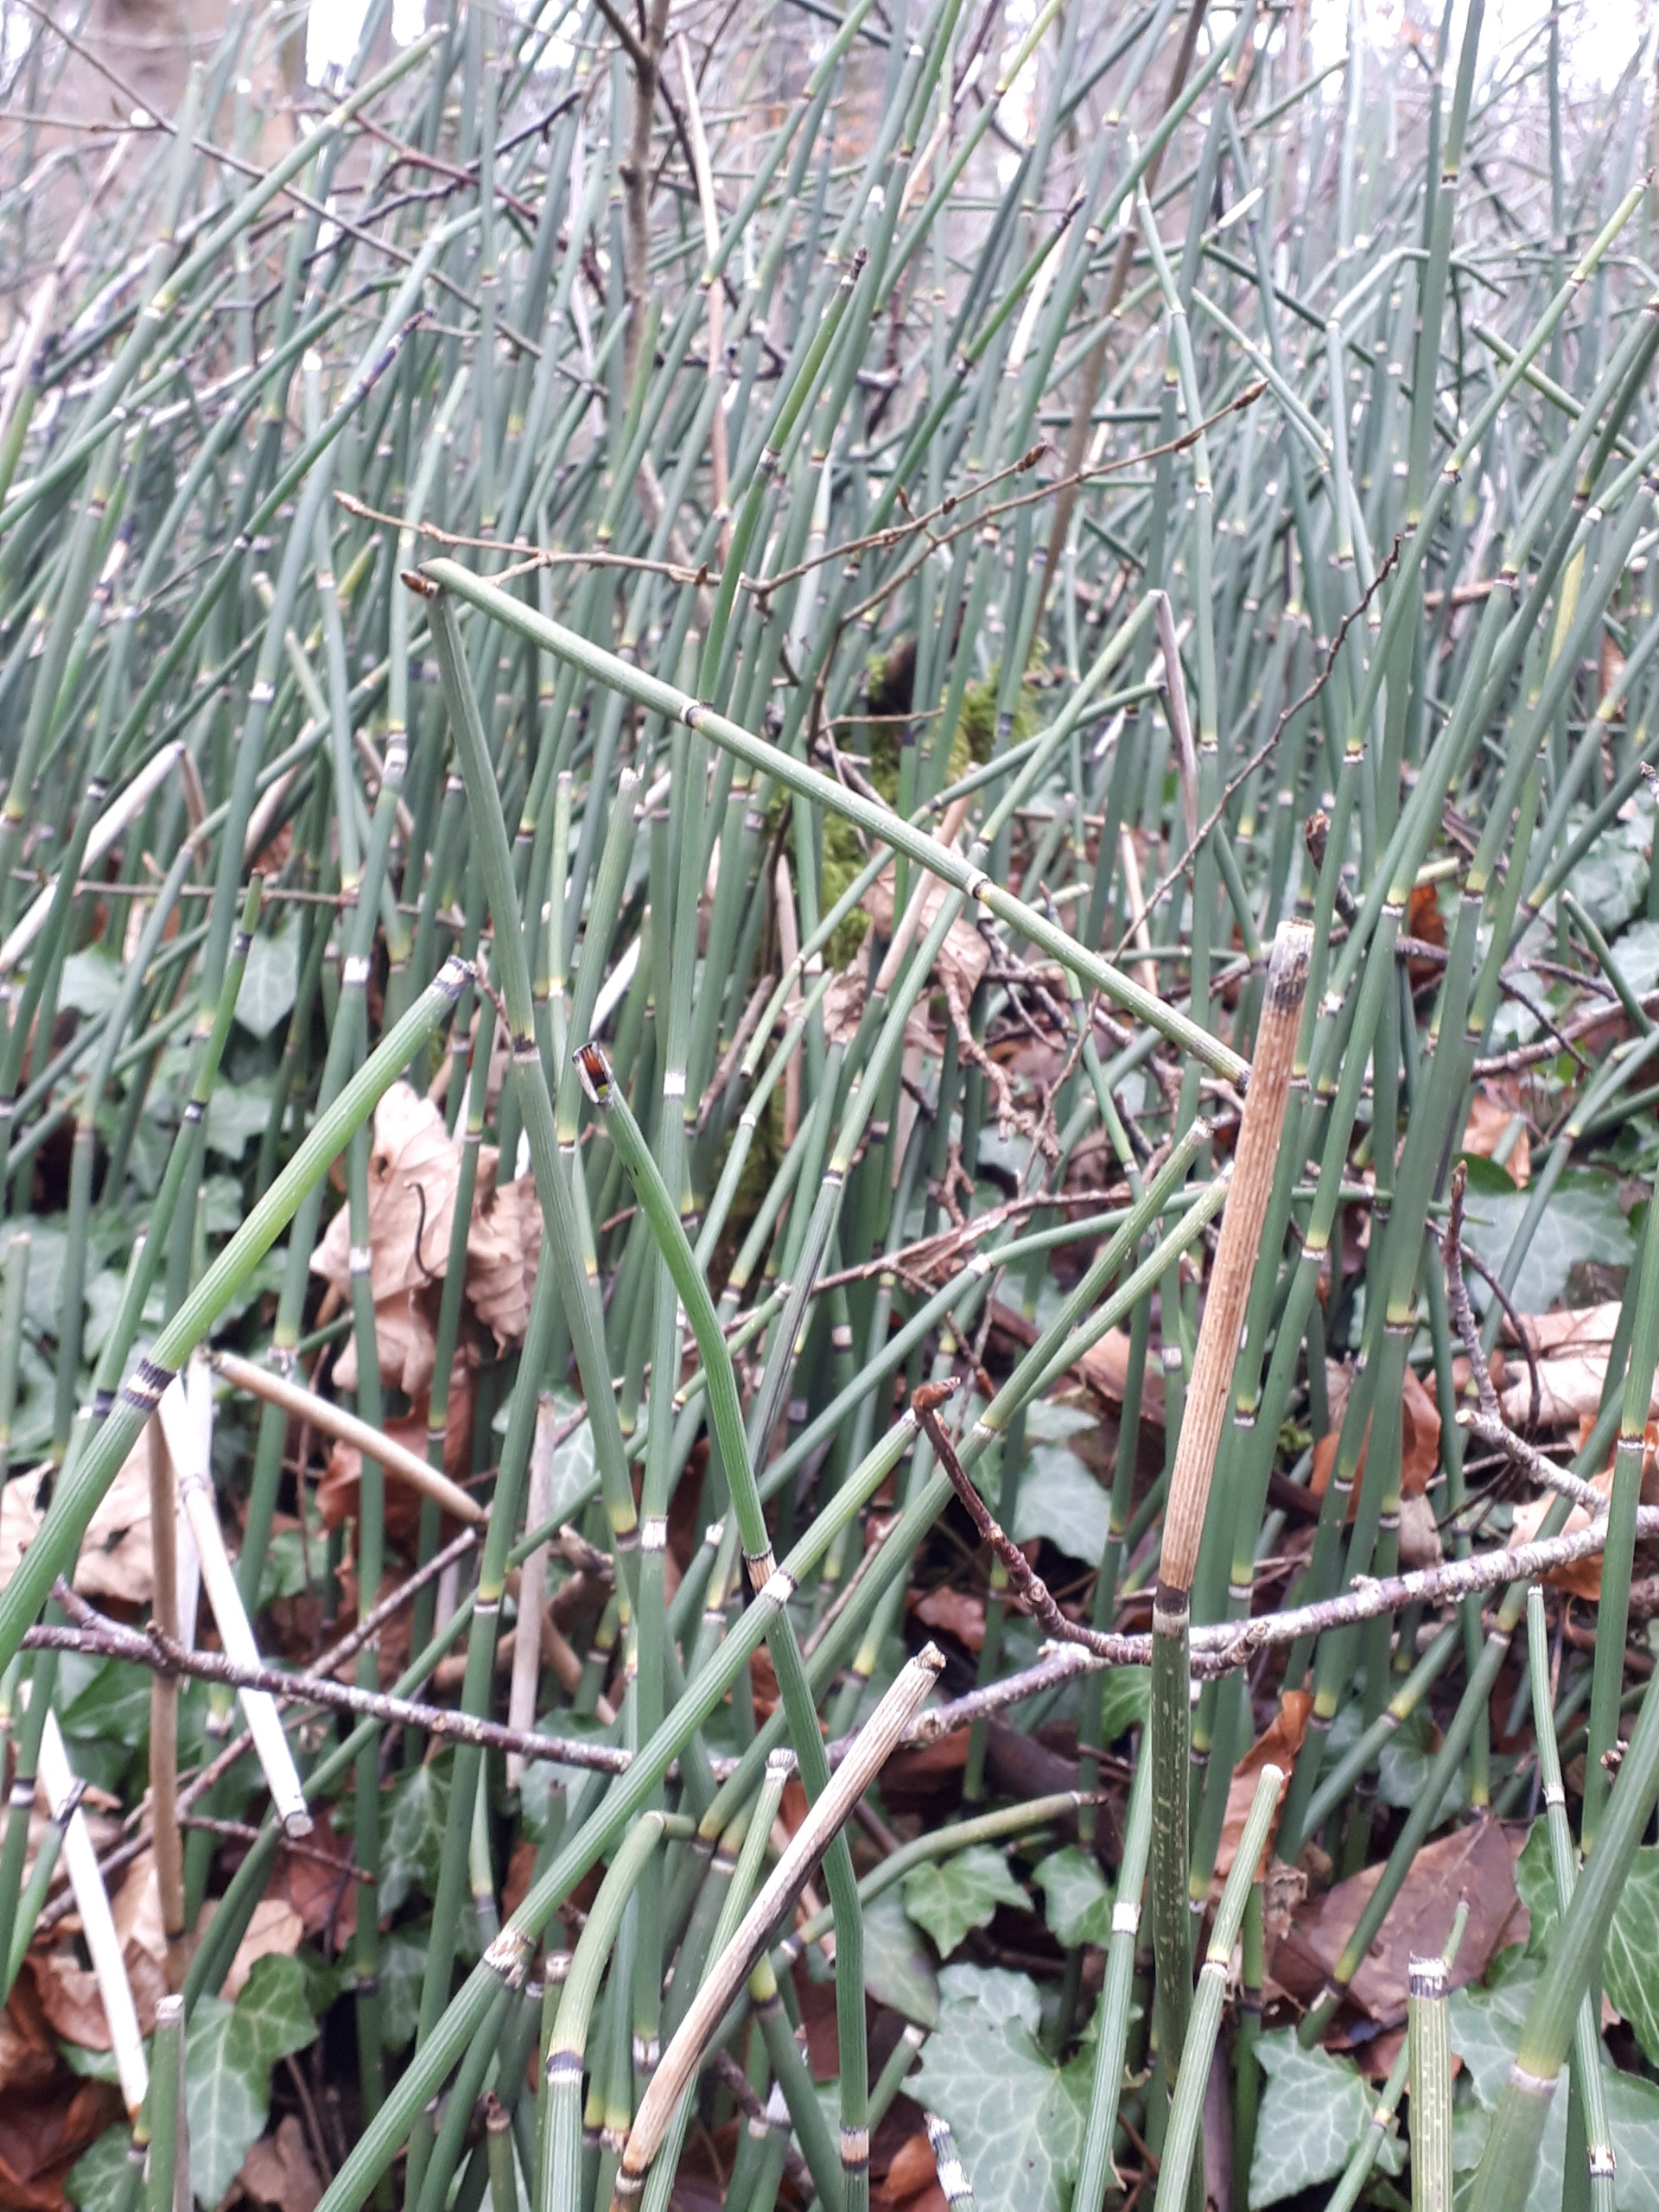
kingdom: Plantae
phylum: Tracheophyta
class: Polypodiopsida
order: Equisetales
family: Equisetaceae
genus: Equisetum
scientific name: Equisetum hyemale
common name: Skavgræs
